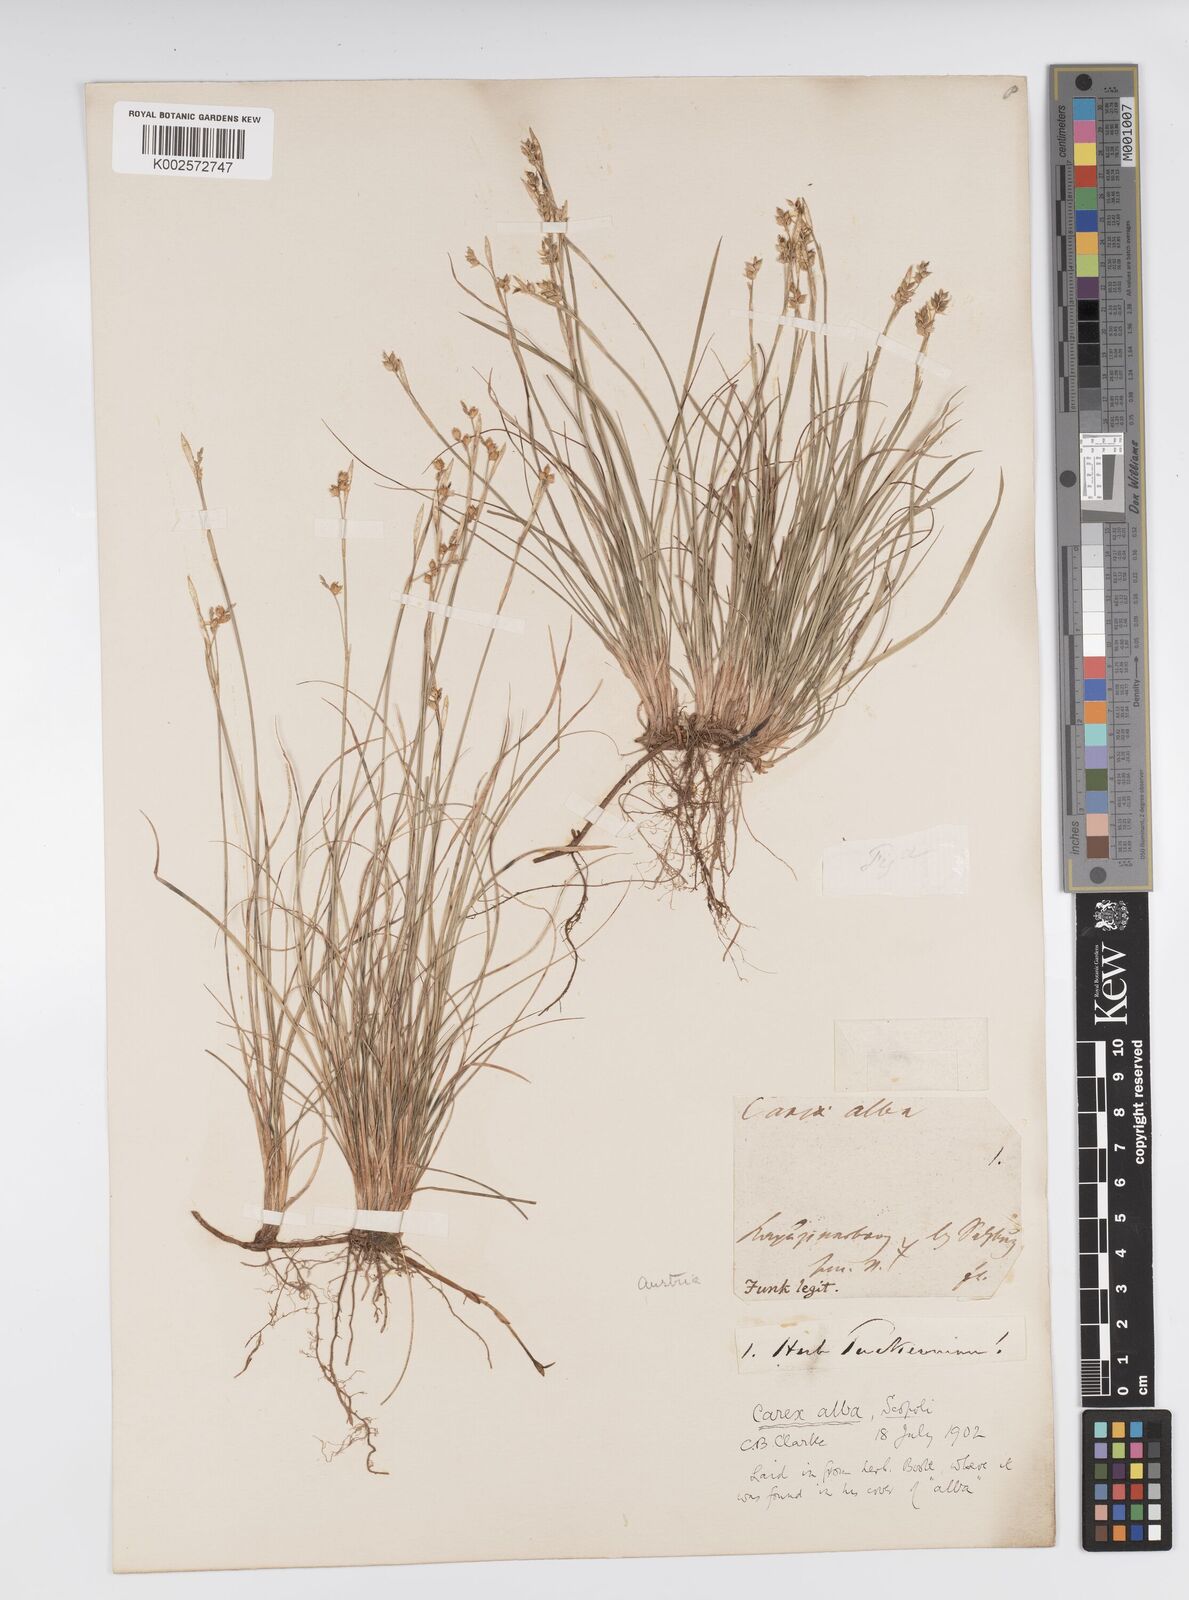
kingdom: Plantae
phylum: Tracheophyta
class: Liliopsida
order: Poales
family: Cyperaceae
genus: Carex
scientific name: Carex alba
